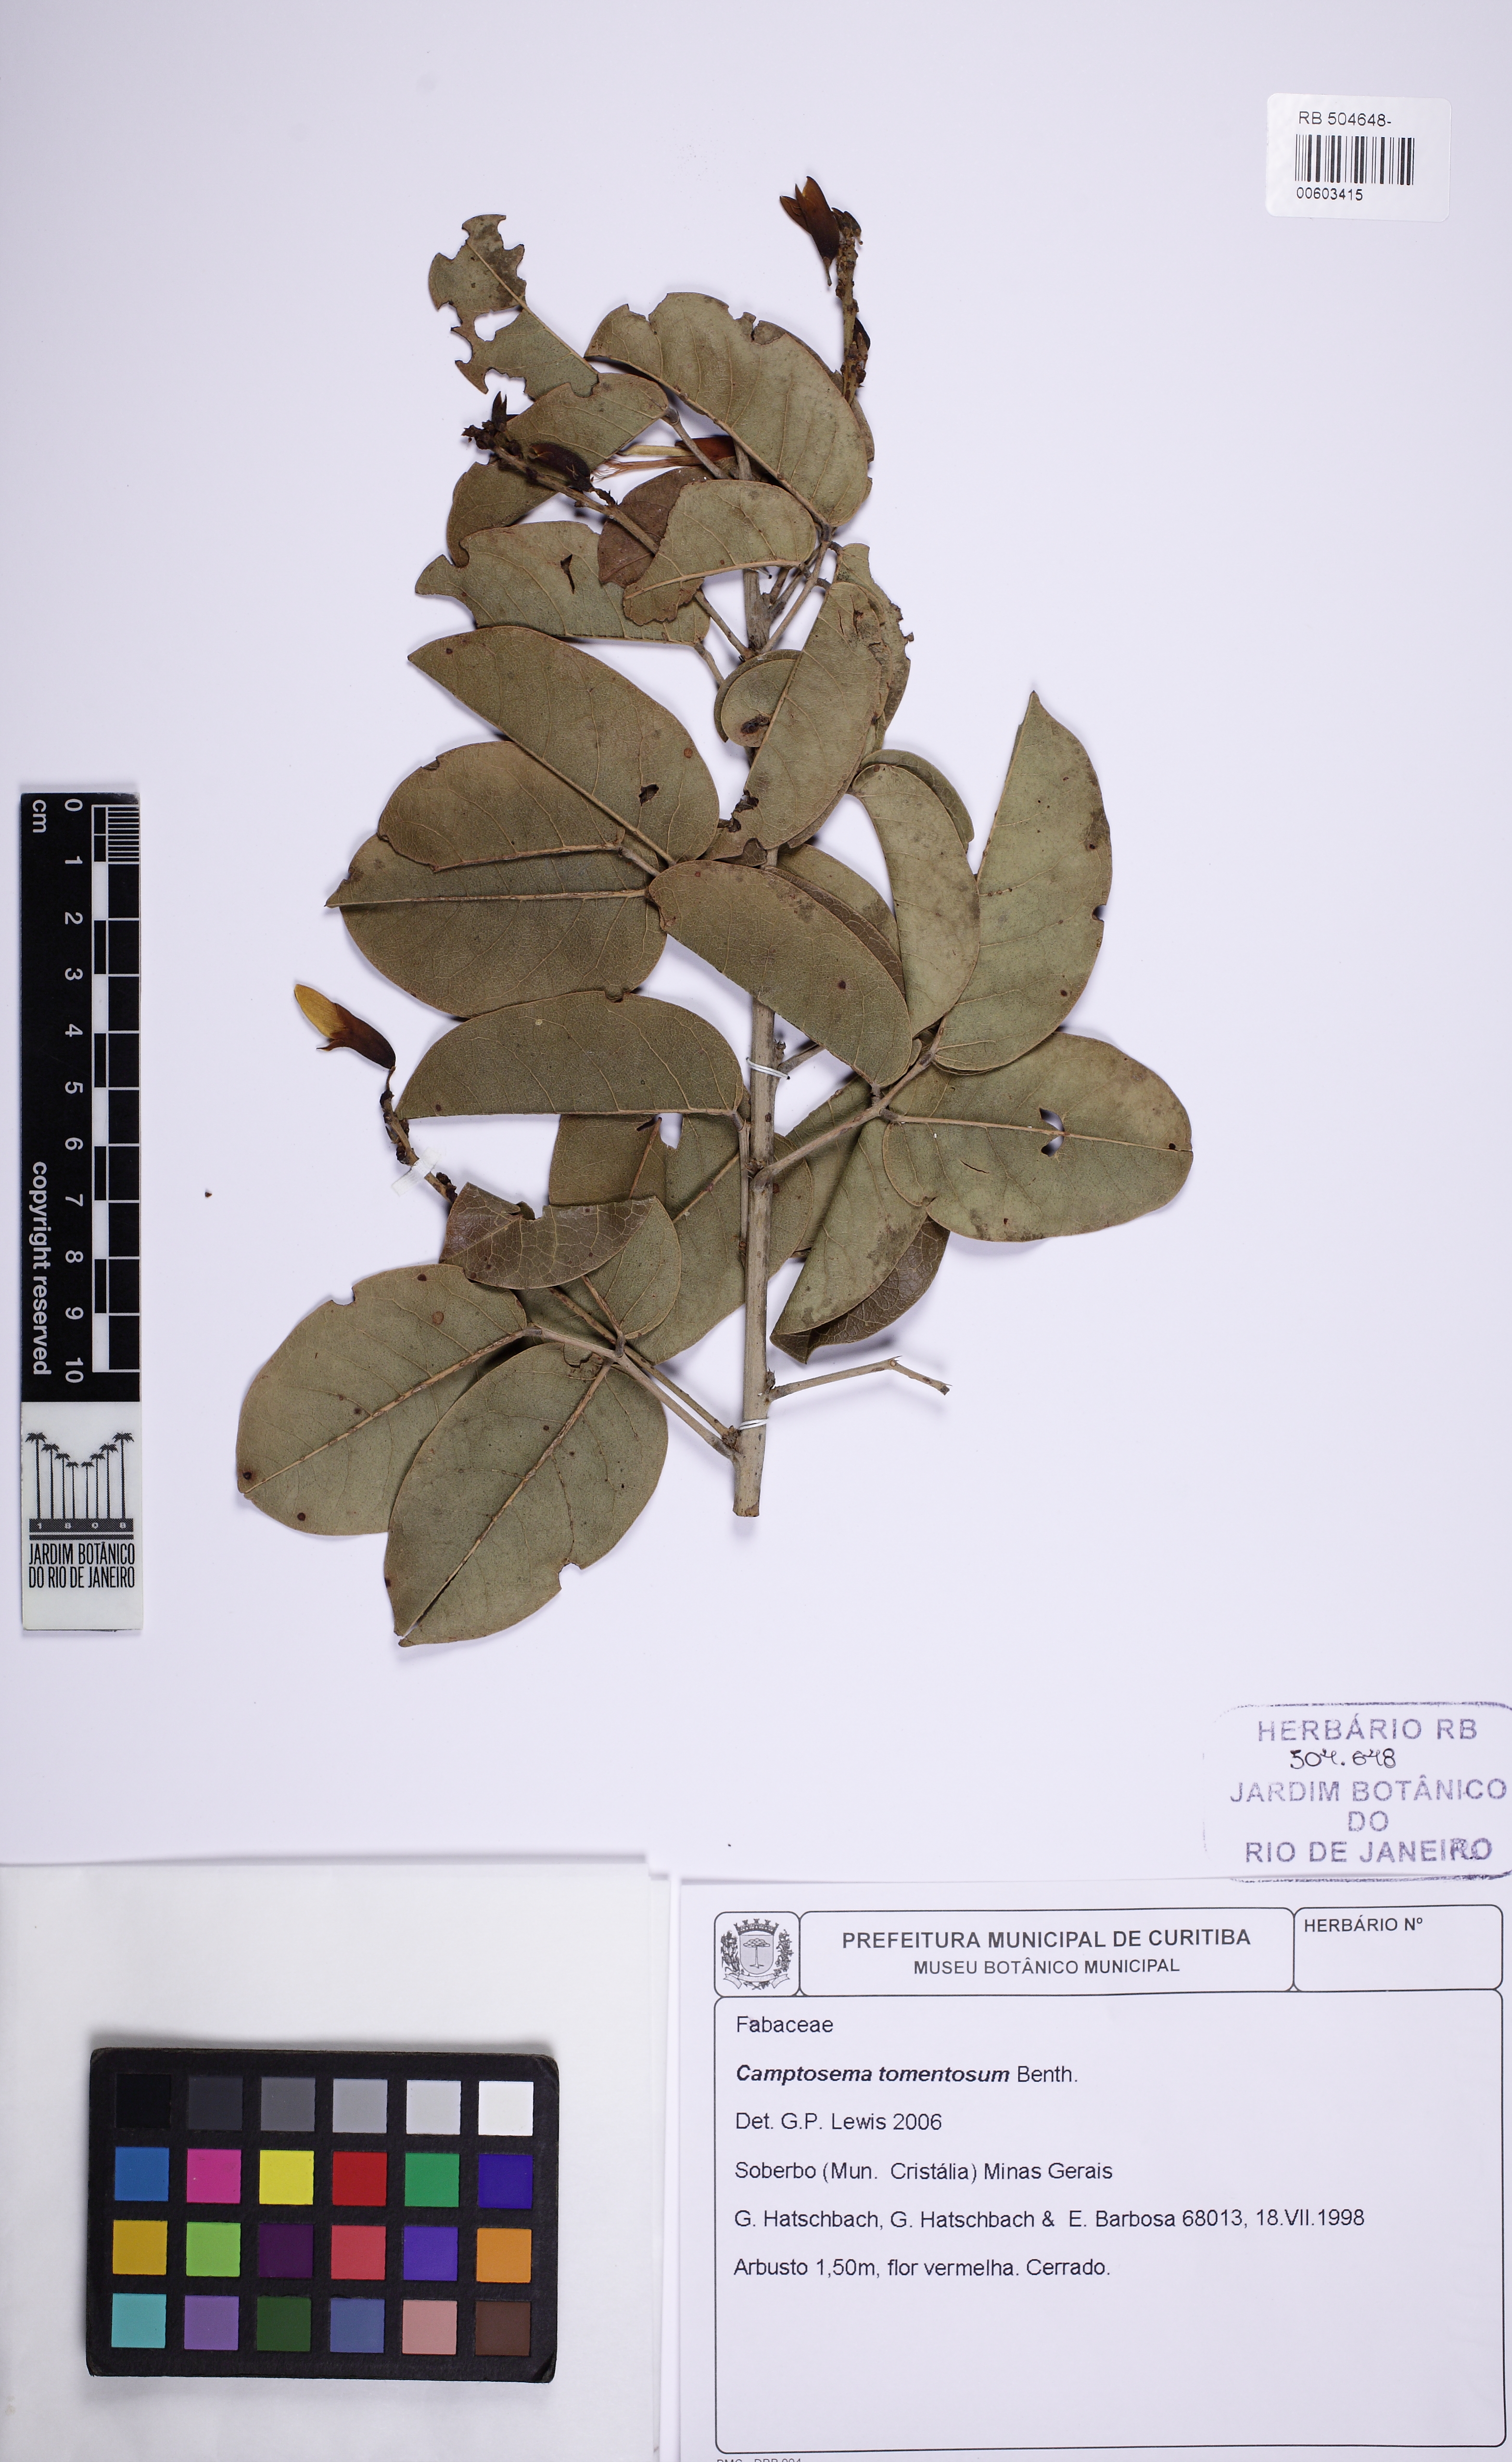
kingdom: Plantae
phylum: Tracheophyta
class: Magnoliopsida
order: Fabales
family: Fabaceae
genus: Camptosema
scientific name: Camptosema tomentosum
